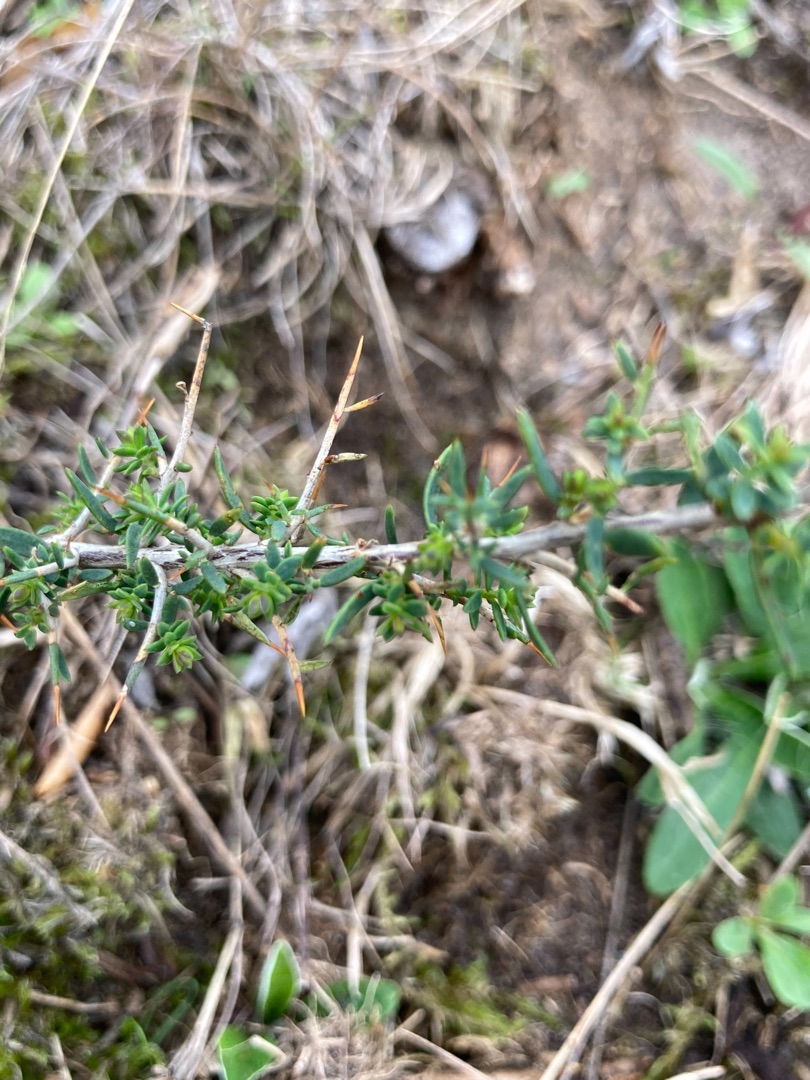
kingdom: Plantae
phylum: Tracheophyta
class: Magnoliopsida
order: Fabales
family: Fabaceae
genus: Genista
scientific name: Genista anglica
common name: Engelsk visse
